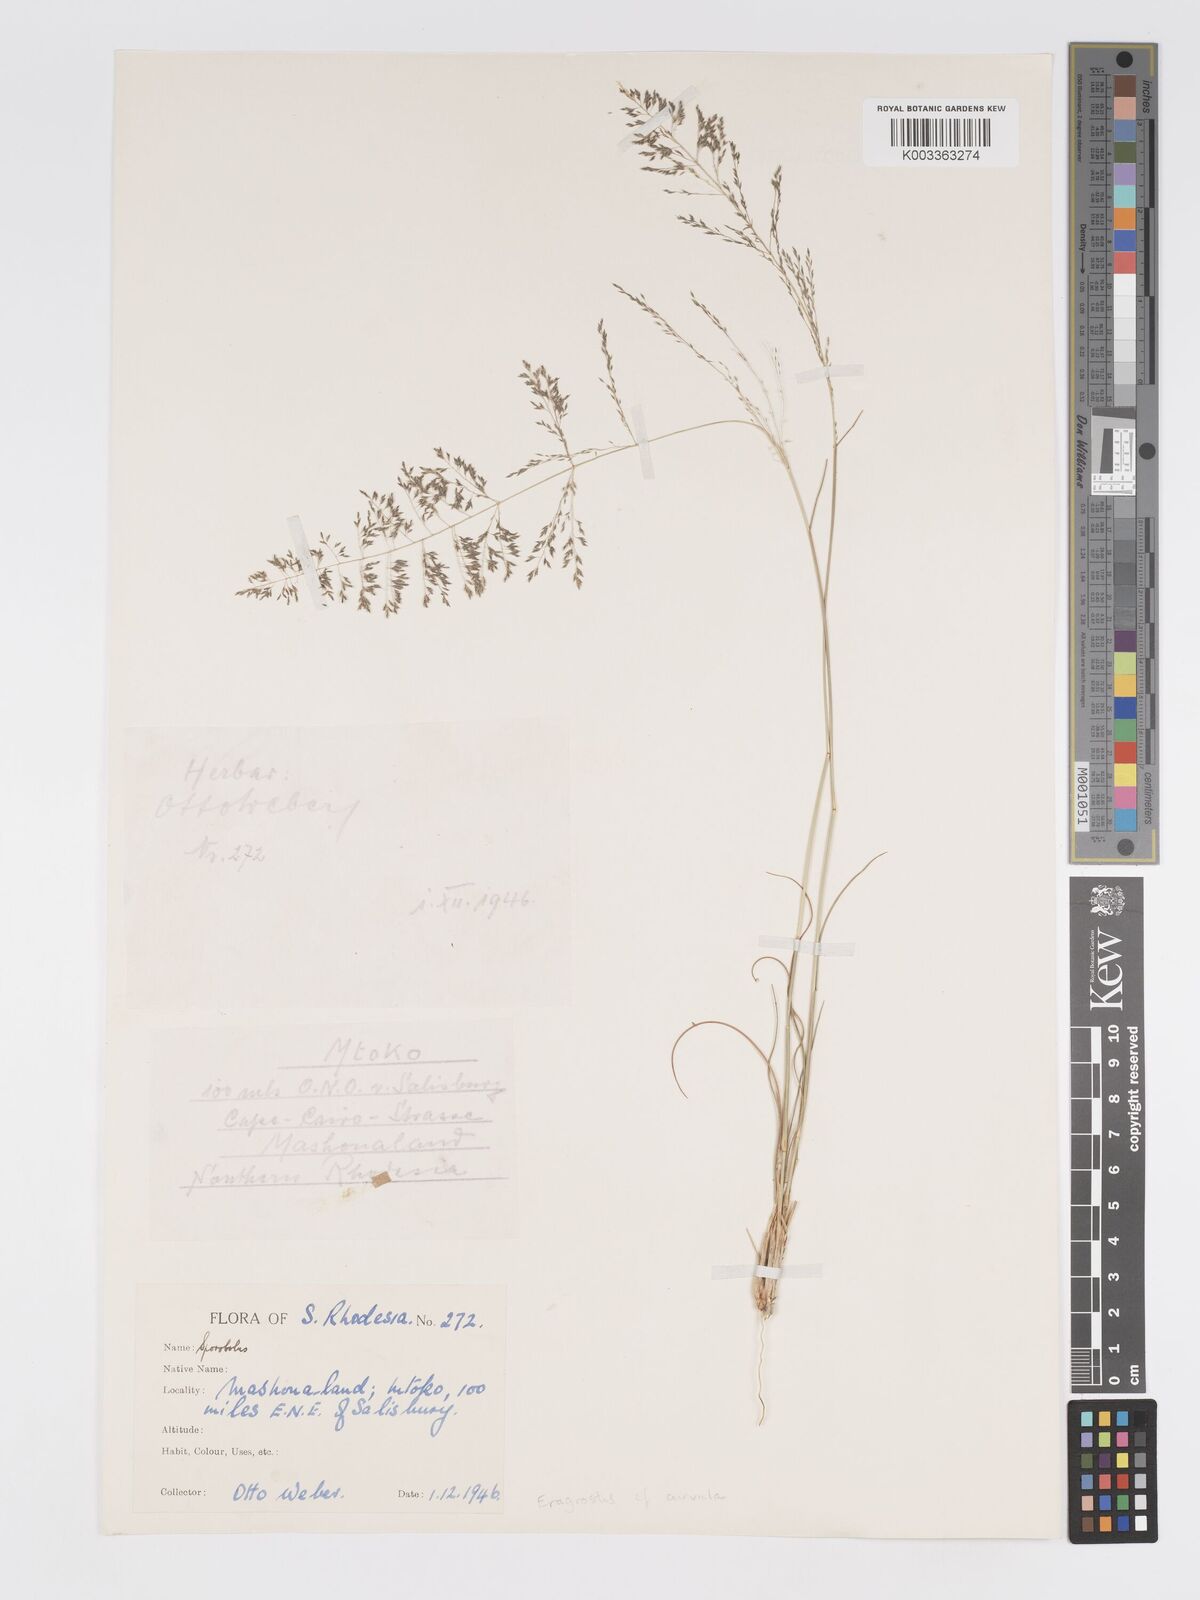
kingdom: Plantae
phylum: Tracheophyta
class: Liliopsida
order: Poales
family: Poaceae
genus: Eragrostis
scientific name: Eragrostis curvula
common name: African love-grass
